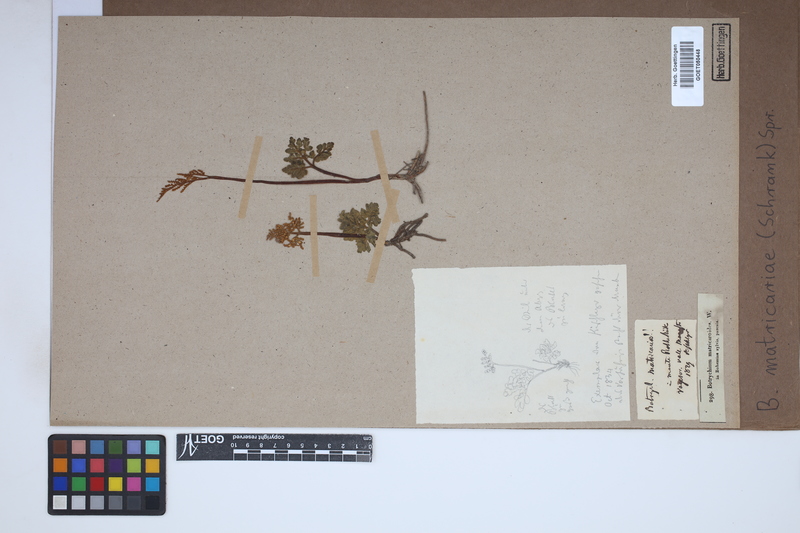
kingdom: Plantae
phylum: Tracheophyta
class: Polypodiopsida
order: Ophioglossales
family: Ophioglossaceae
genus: Sceptridium
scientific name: Sceptridium multifidum
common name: Leathery grape fern
